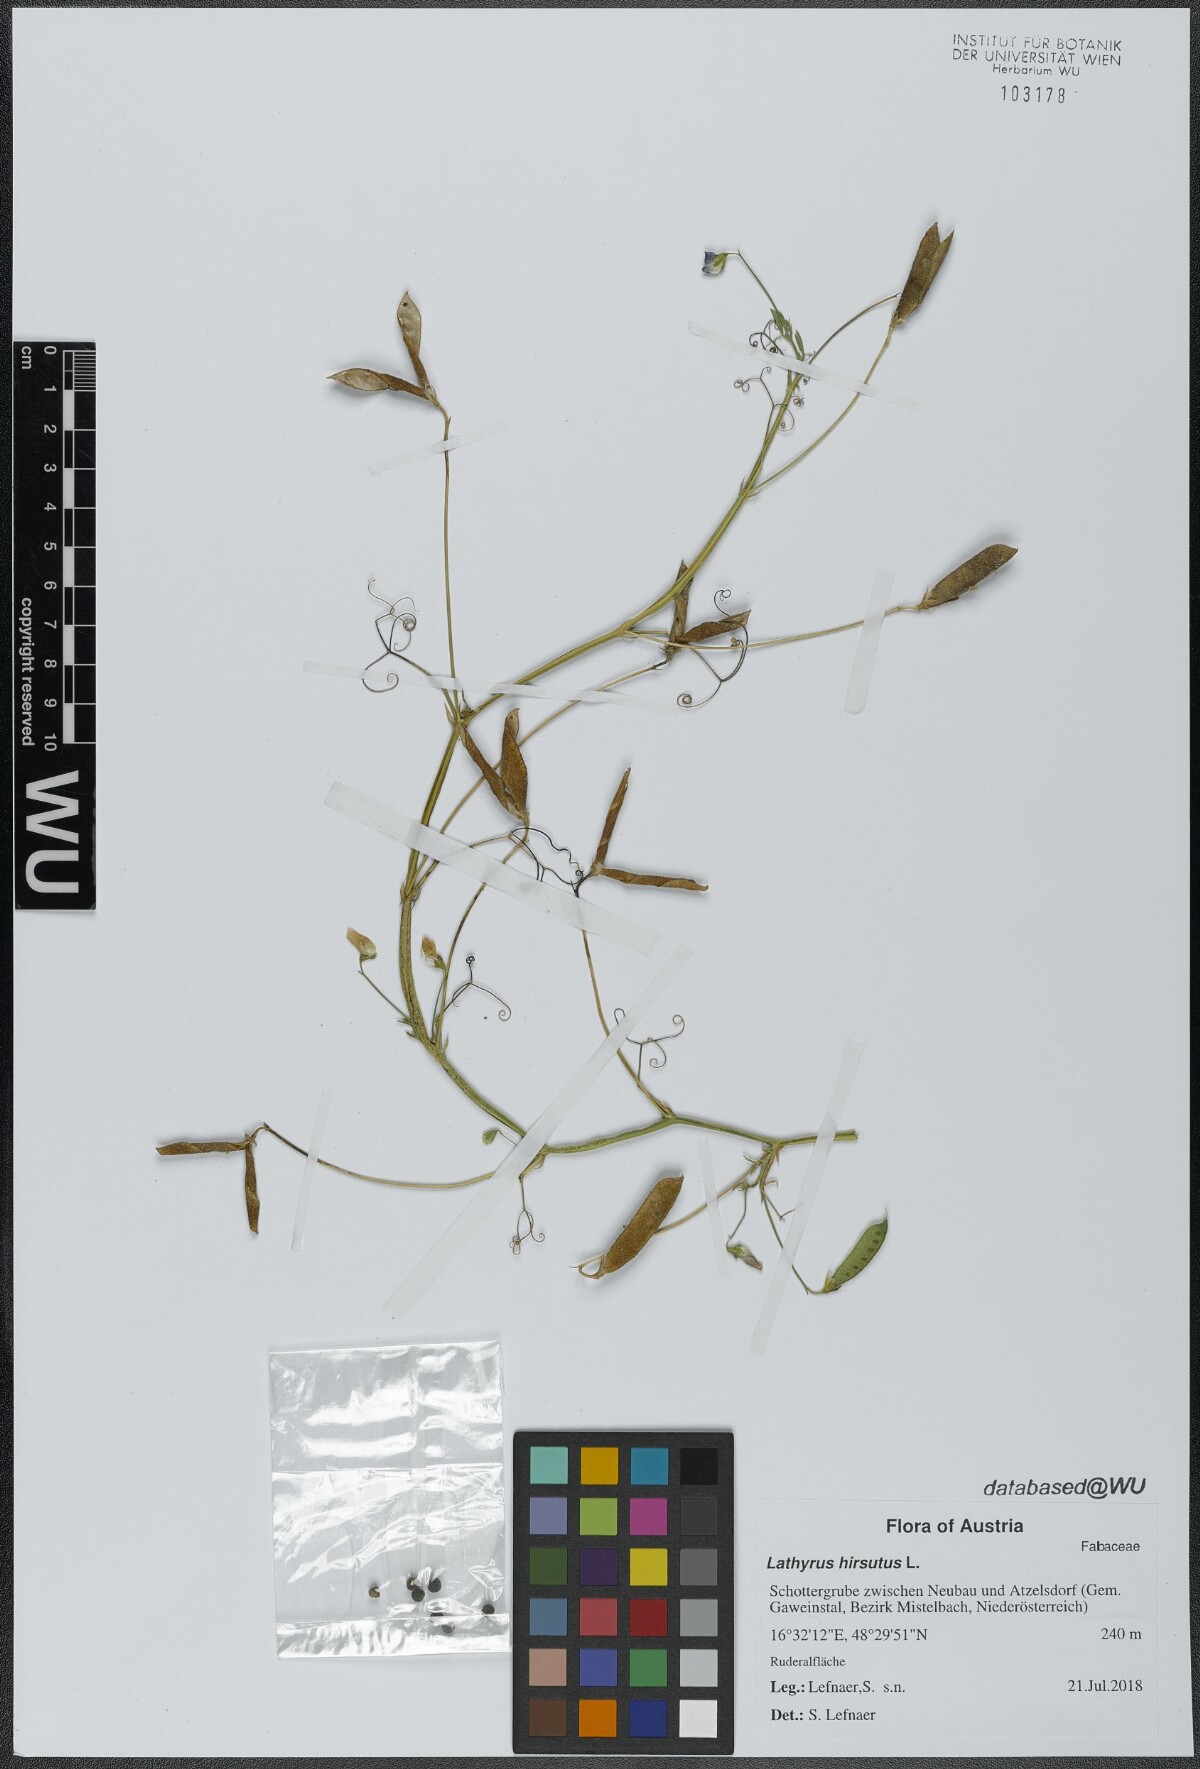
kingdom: Plantae
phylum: Tracheophyta
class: Magnoliopsida
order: Fabales
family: Fabaceae
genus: Lathyrus
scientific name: Lathyrus hirsutus
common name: Hairy vetchling
